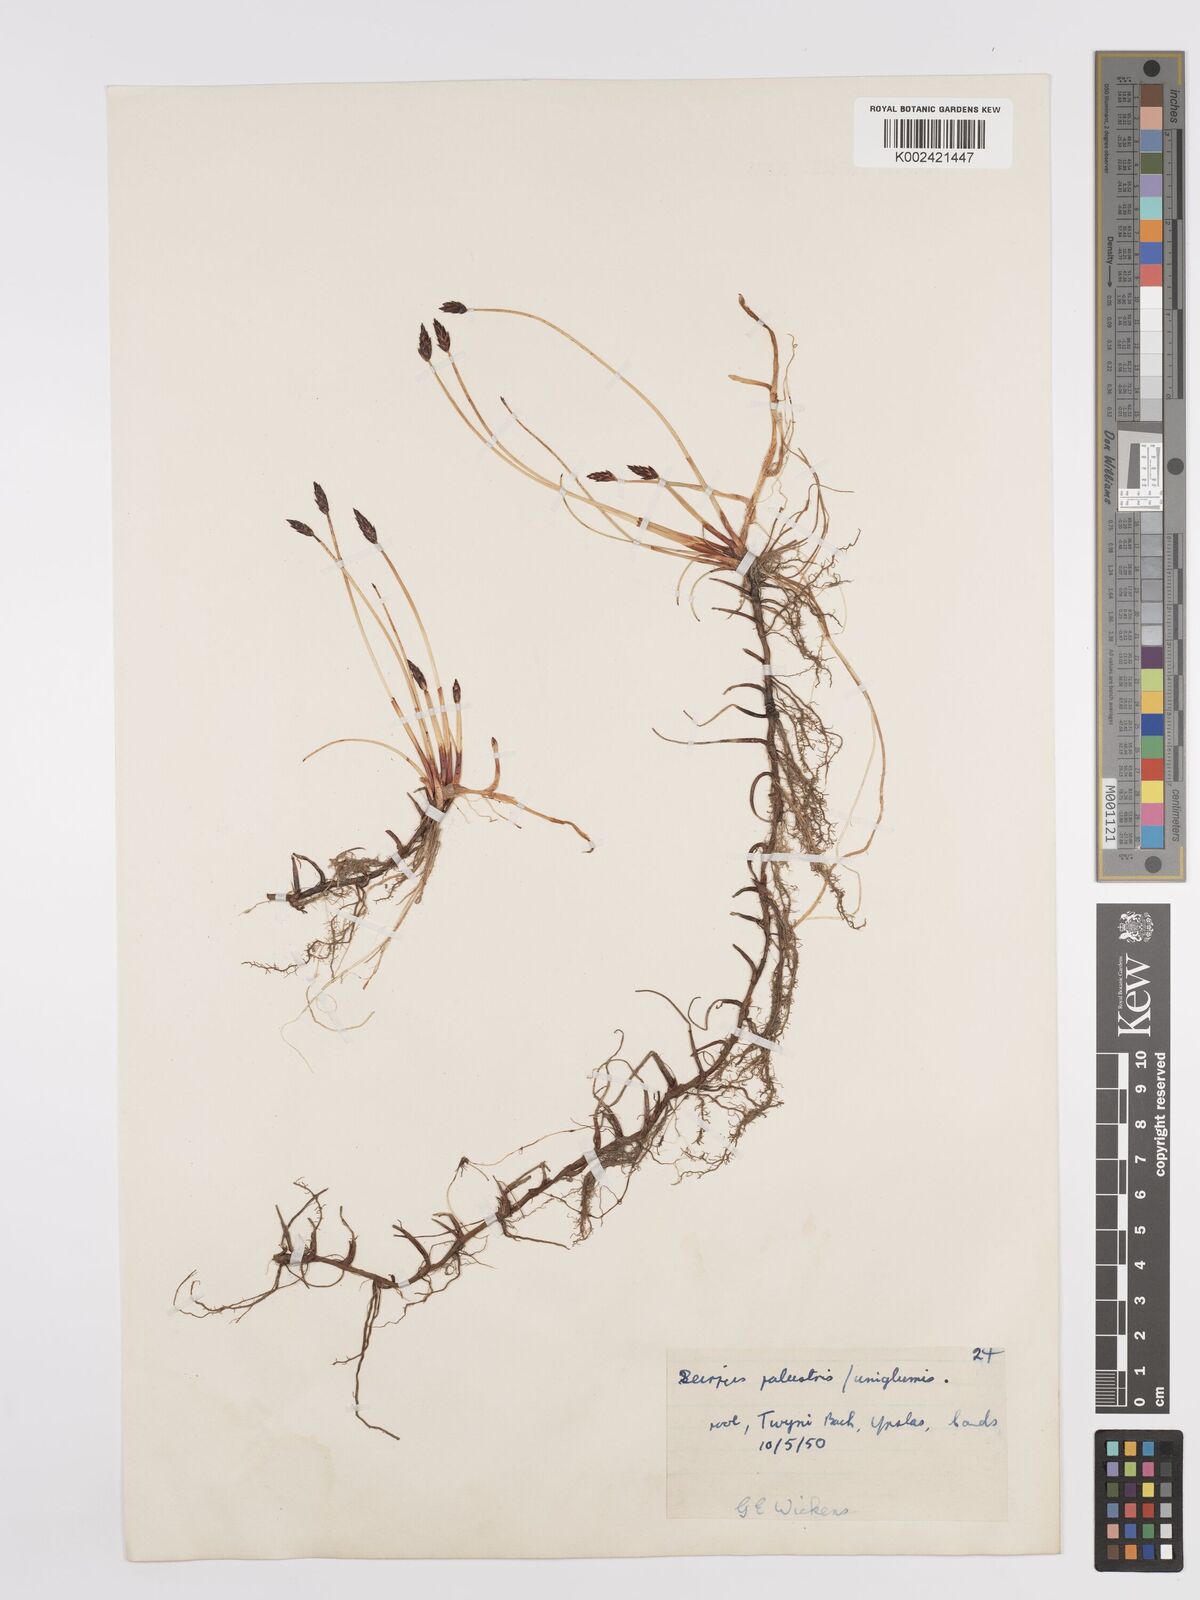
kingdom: Plantae
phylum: Tracheophyta
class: Liliopsida
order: Poales
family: Cyperaceae
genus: Eleocharis
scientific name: Eleocharis uniglumis
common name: Slender spike-rush
